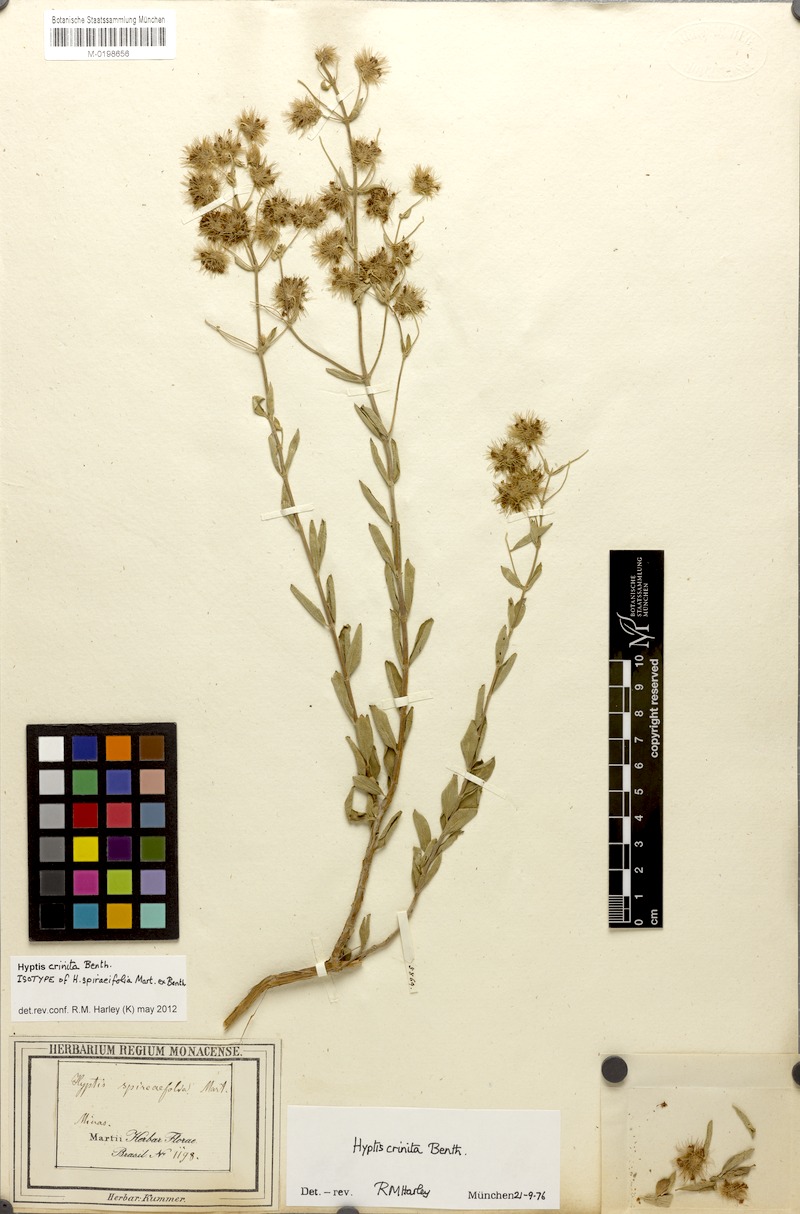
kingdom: Plantae
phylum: Tracheophyta
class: Magnoliopsida
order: Lamiales
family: Lamiaceae
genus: Medusantha
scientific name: Medusantha crinita
